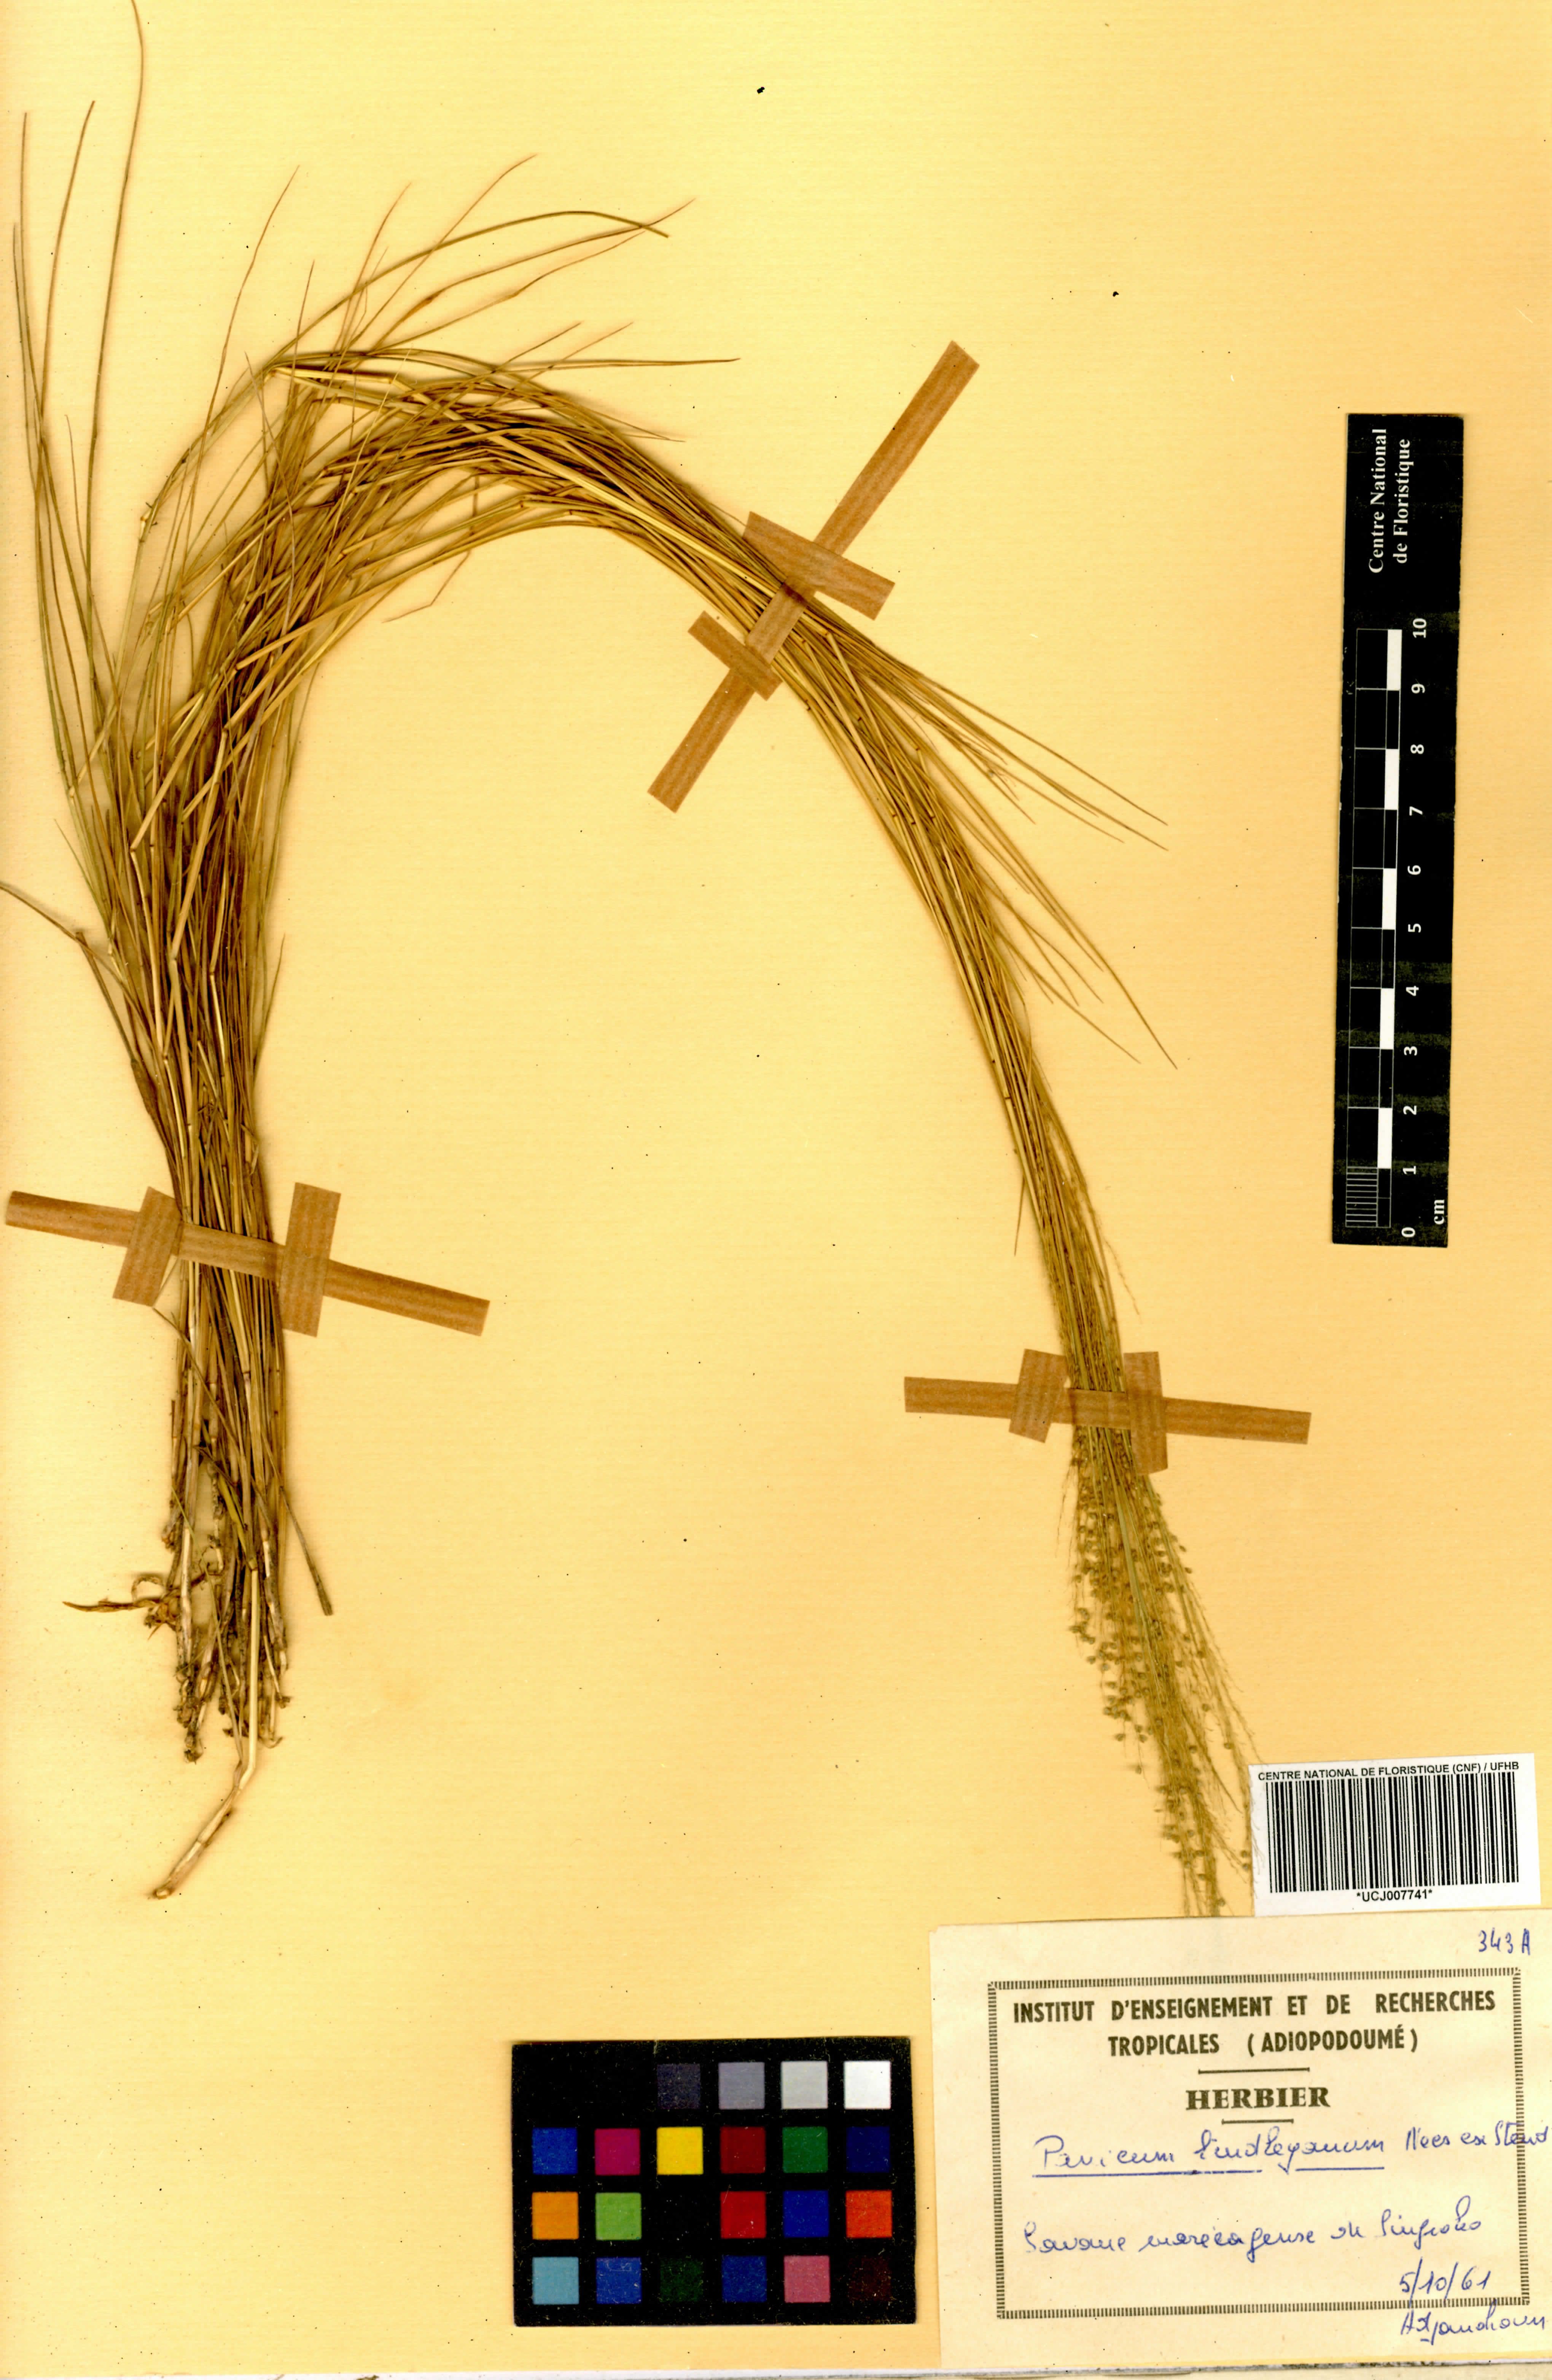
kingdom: Plantae
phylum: Tracheophyta
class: Liliopsida
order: Poales
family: Poaceae
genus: Trichanthecium
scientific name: Trichanthecium tenellum
